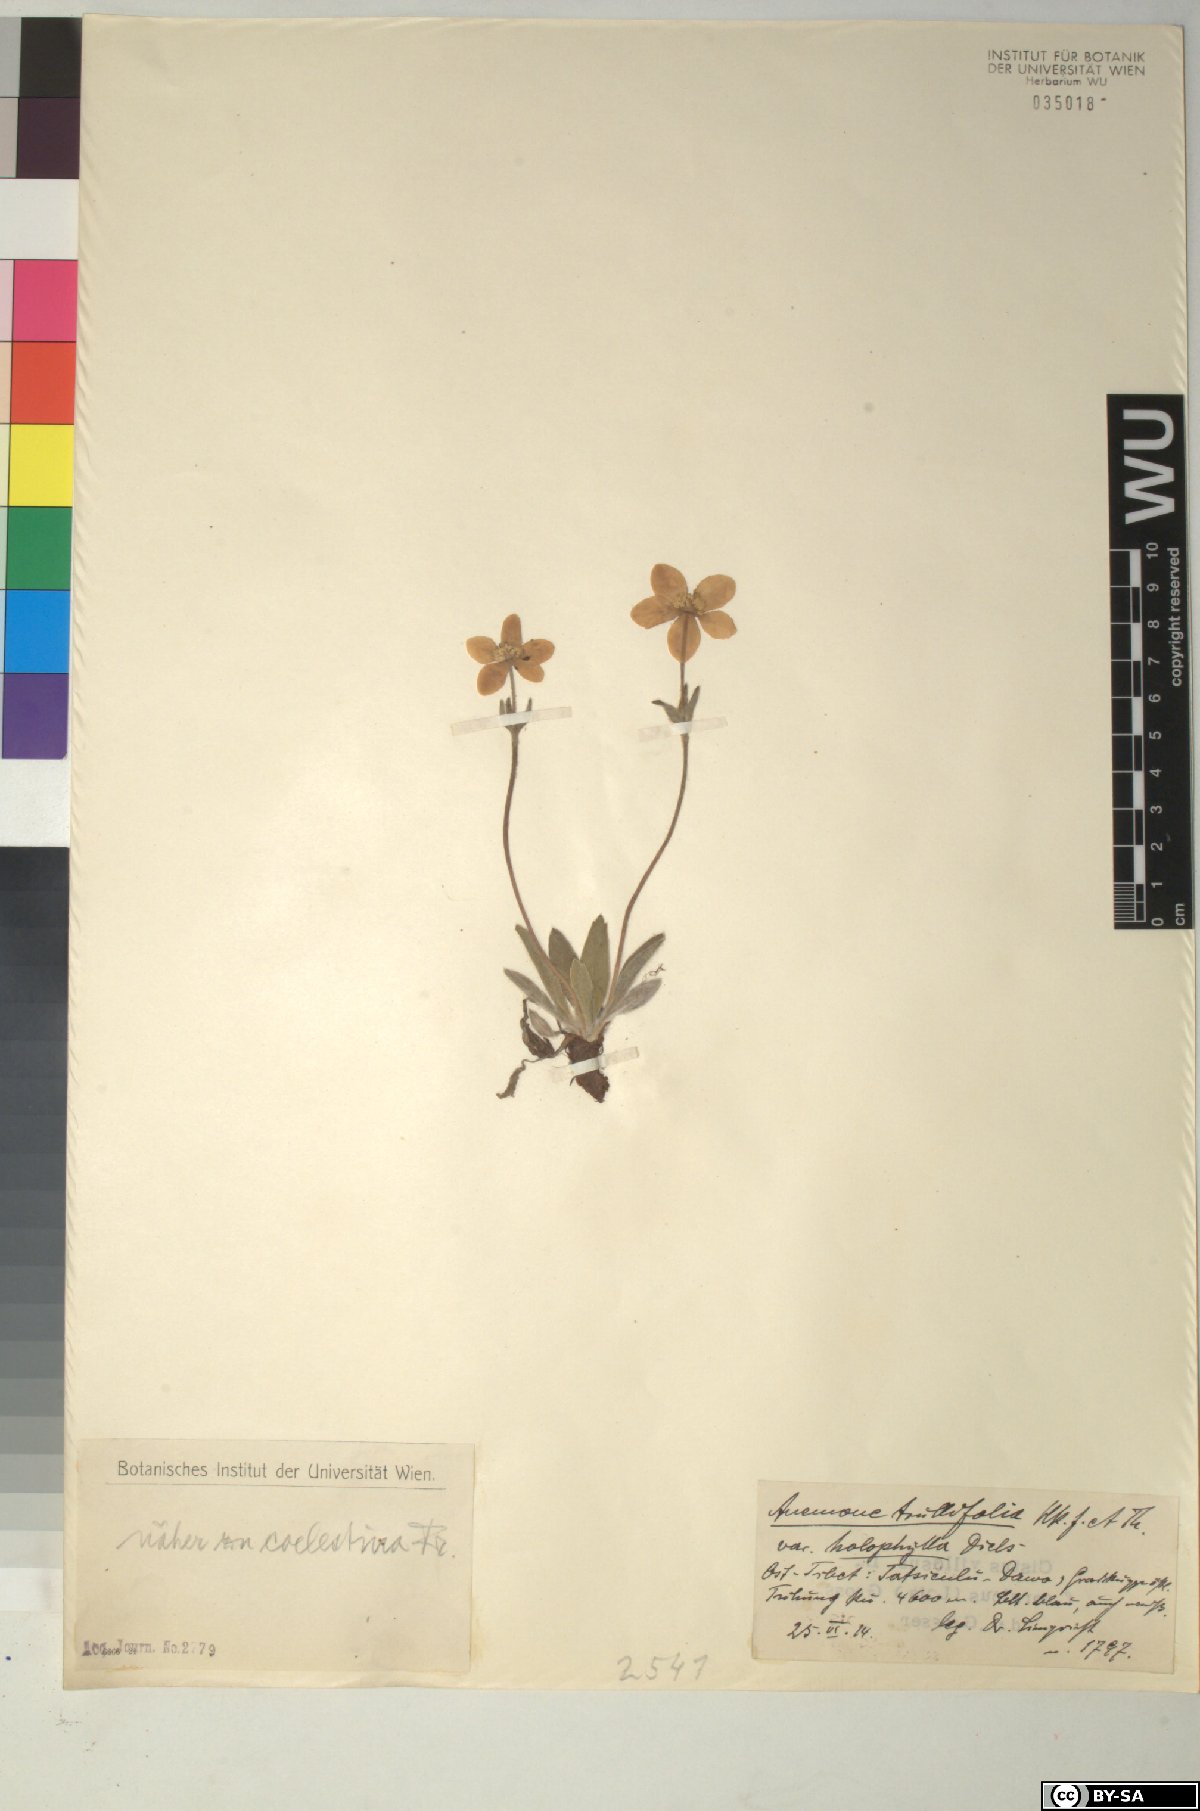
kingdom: Plantae
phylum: Tracheophyta
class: Magnoliopsida
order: Ranunculales
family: Ranunculaceae
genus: Anemonastrum
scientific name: Anemonastrum coelestinum
